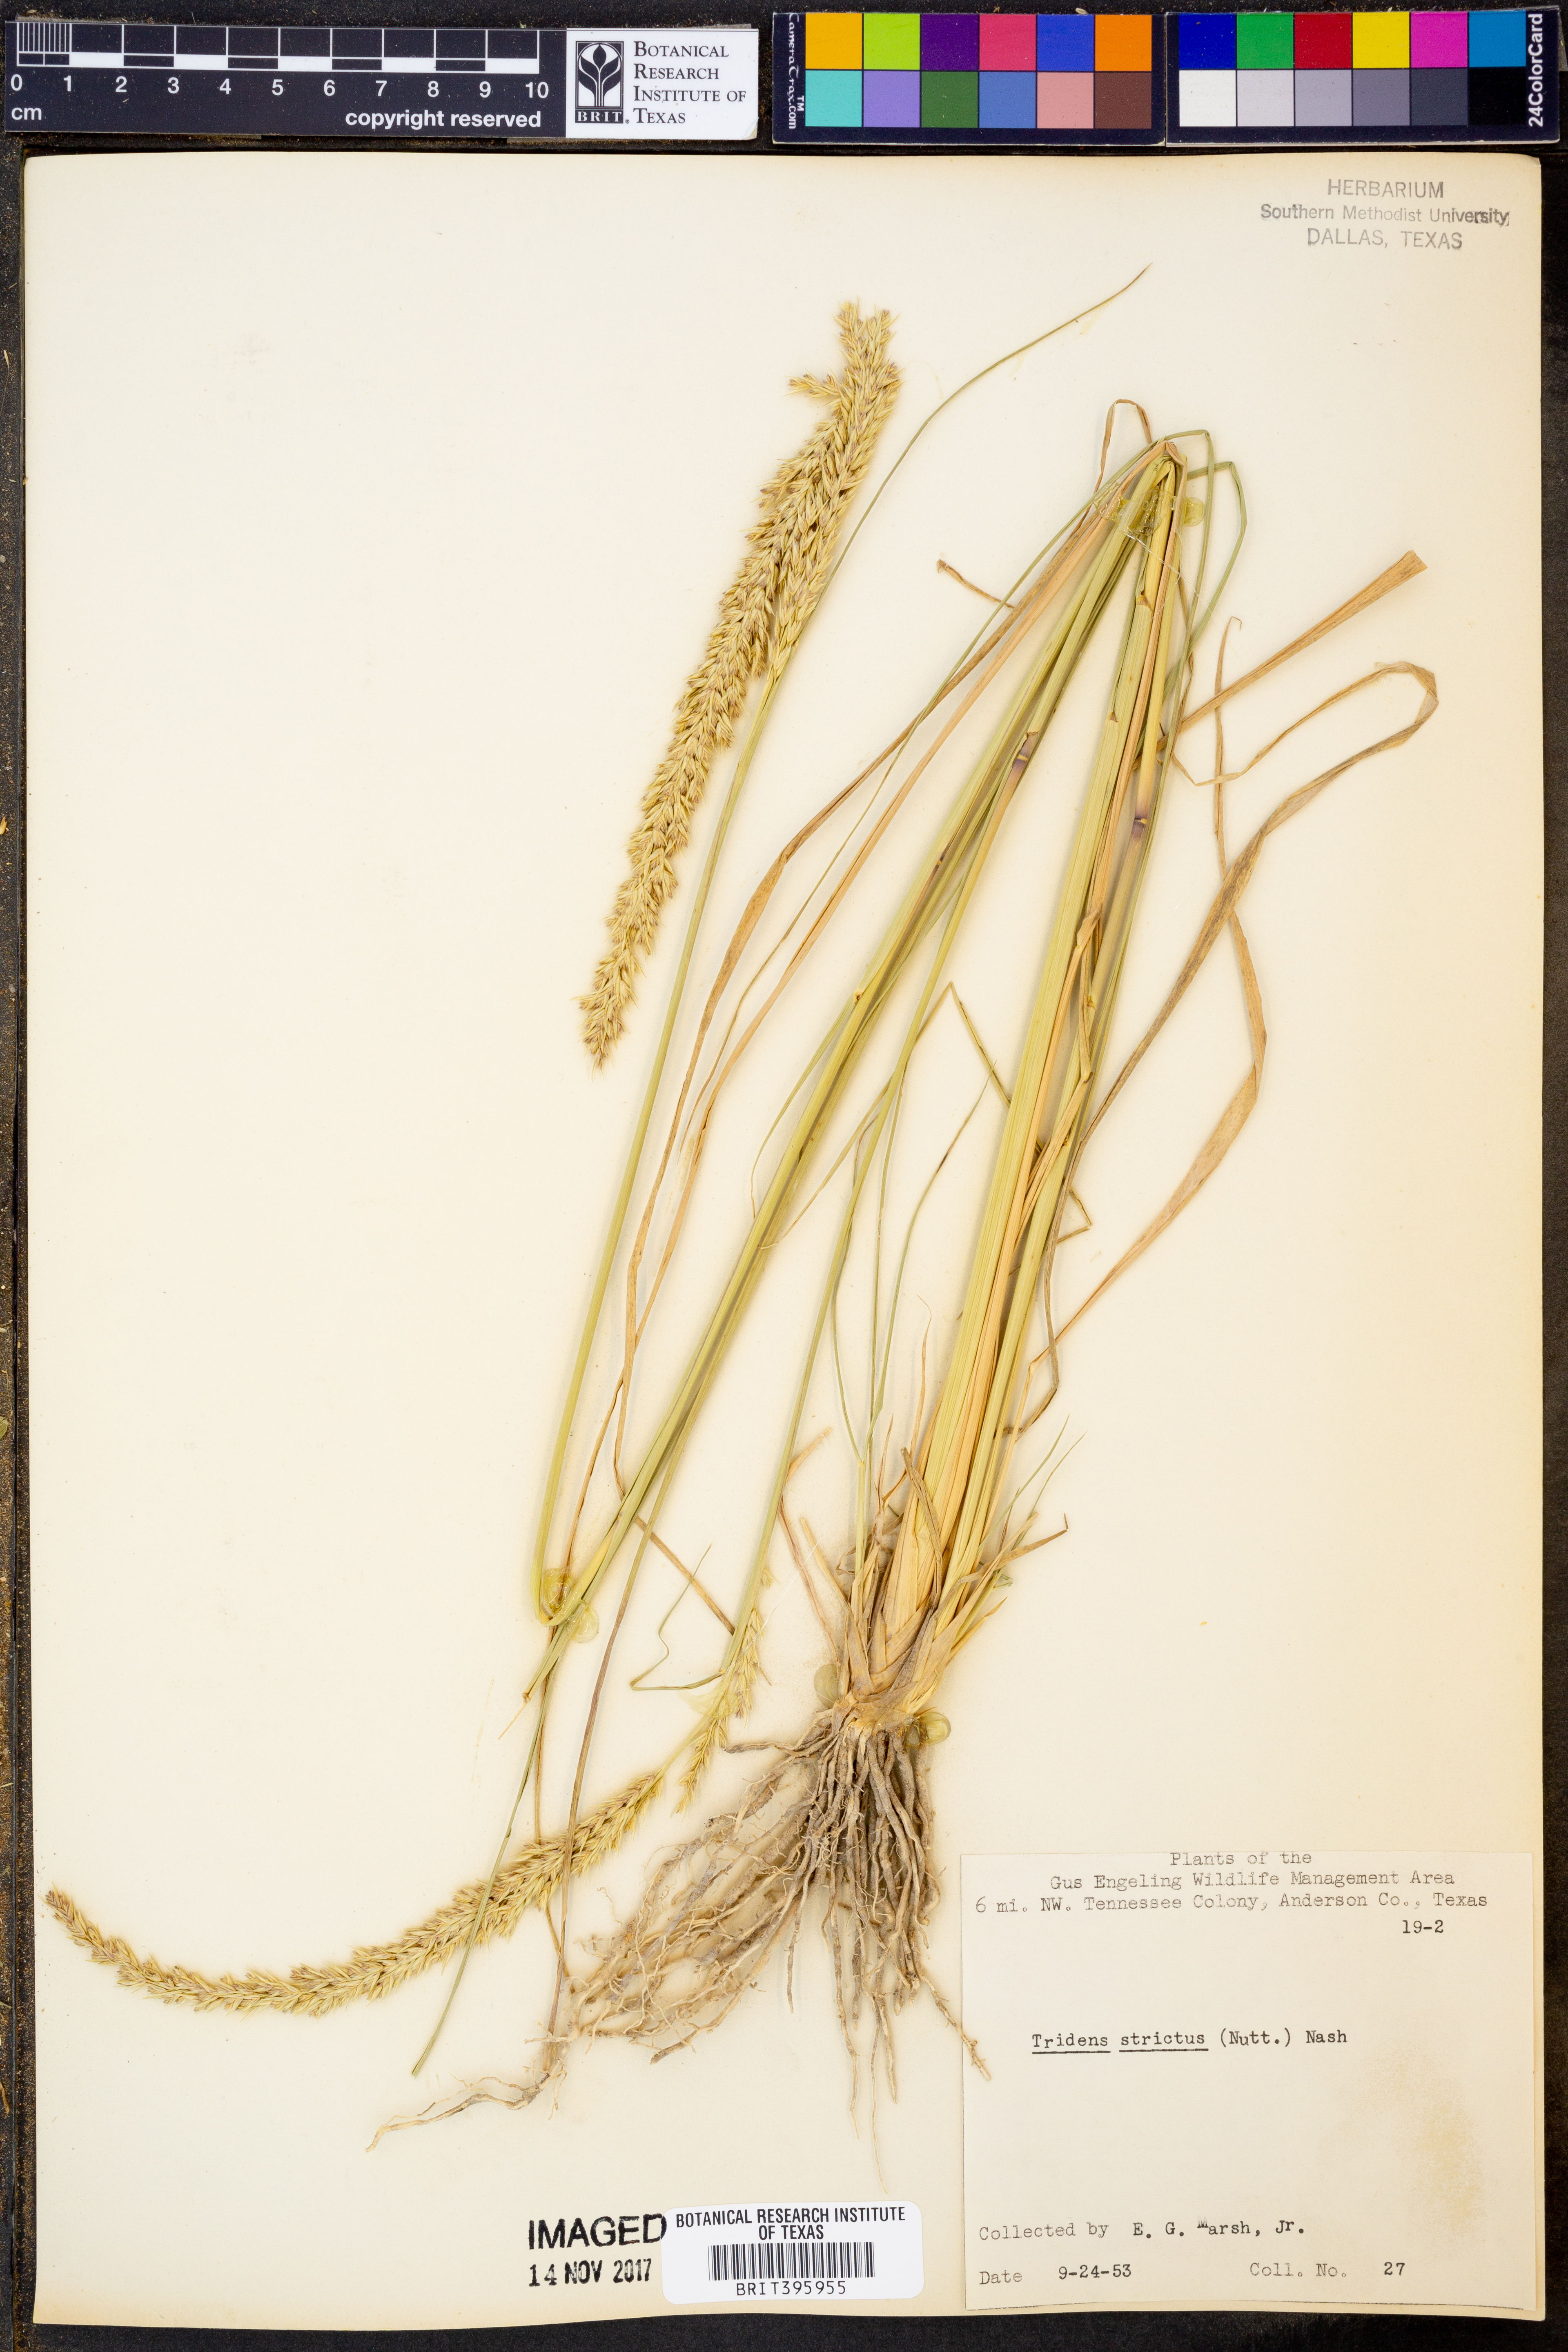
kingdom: Plantae
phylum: Tracheophyta
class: Liliopsida
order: Poales
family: Poaceae
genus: Tridens
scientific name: Tridens strictus
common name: Long-spike tridens
